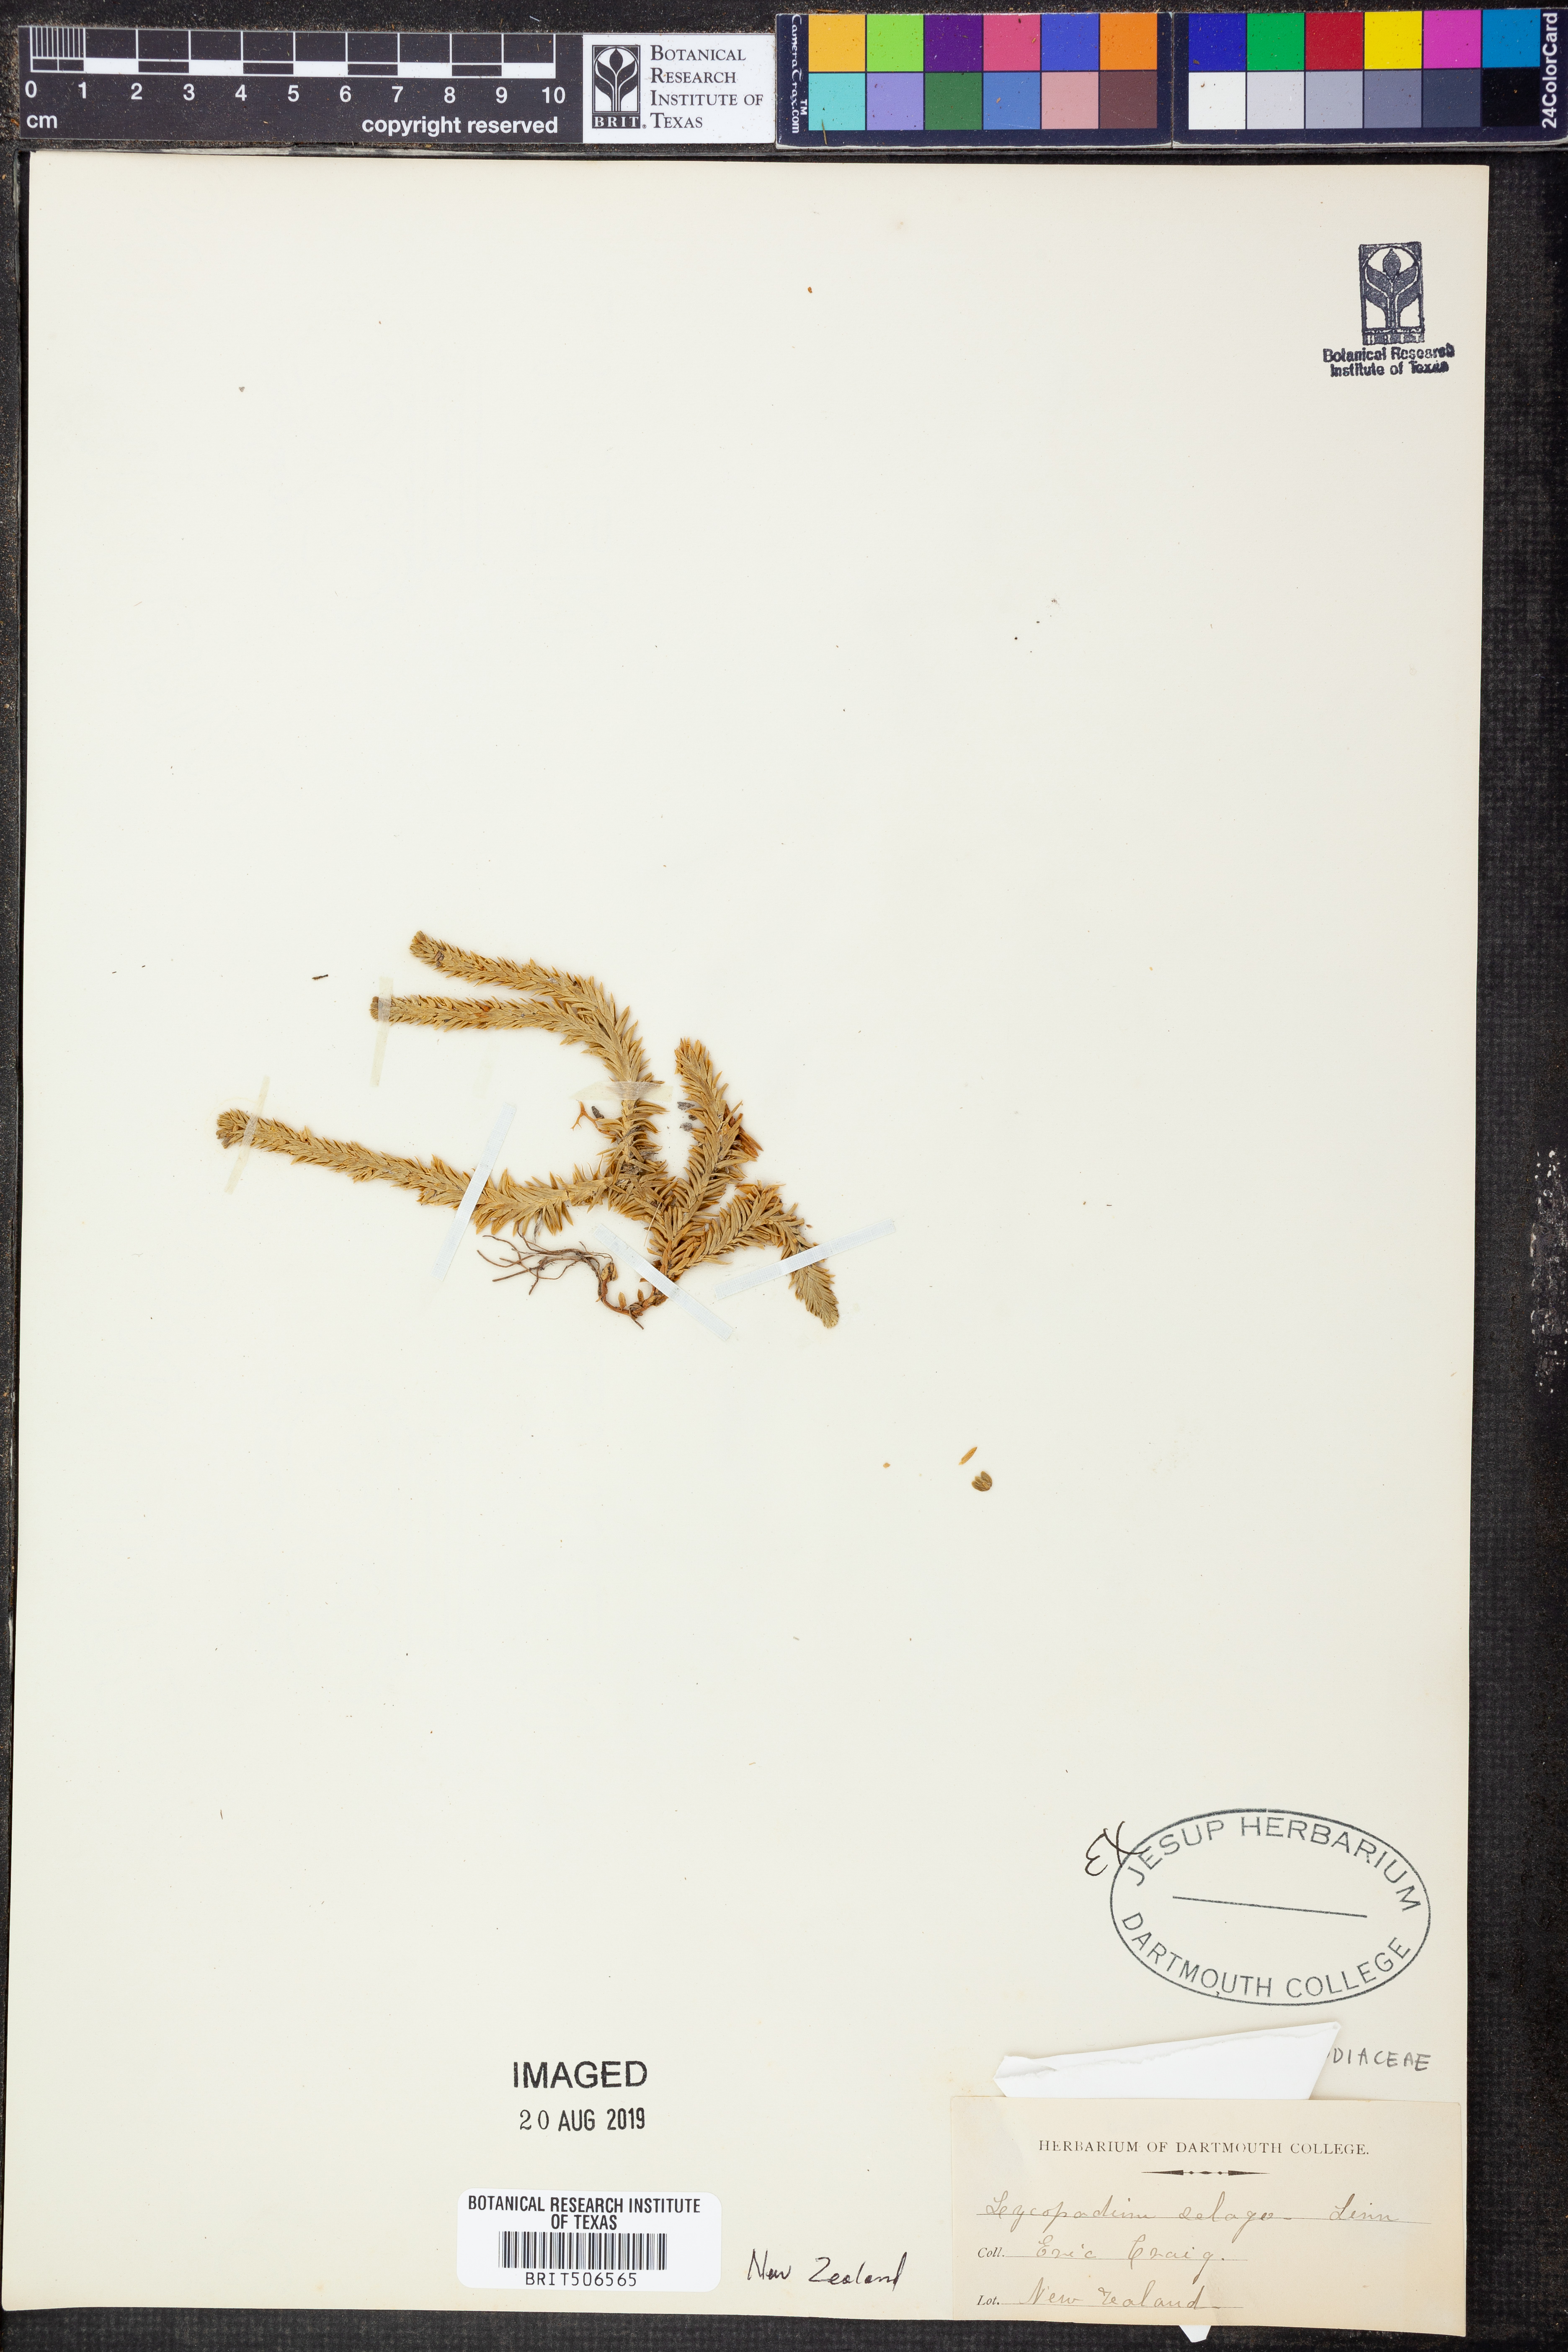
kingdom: Plantae
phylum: Tracheophyta
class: Lycopodiopsida
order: Lycopodiales
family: Lycopodiaceae
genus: Huperzia
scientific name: Huperzia selago
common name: Northern firmoss
